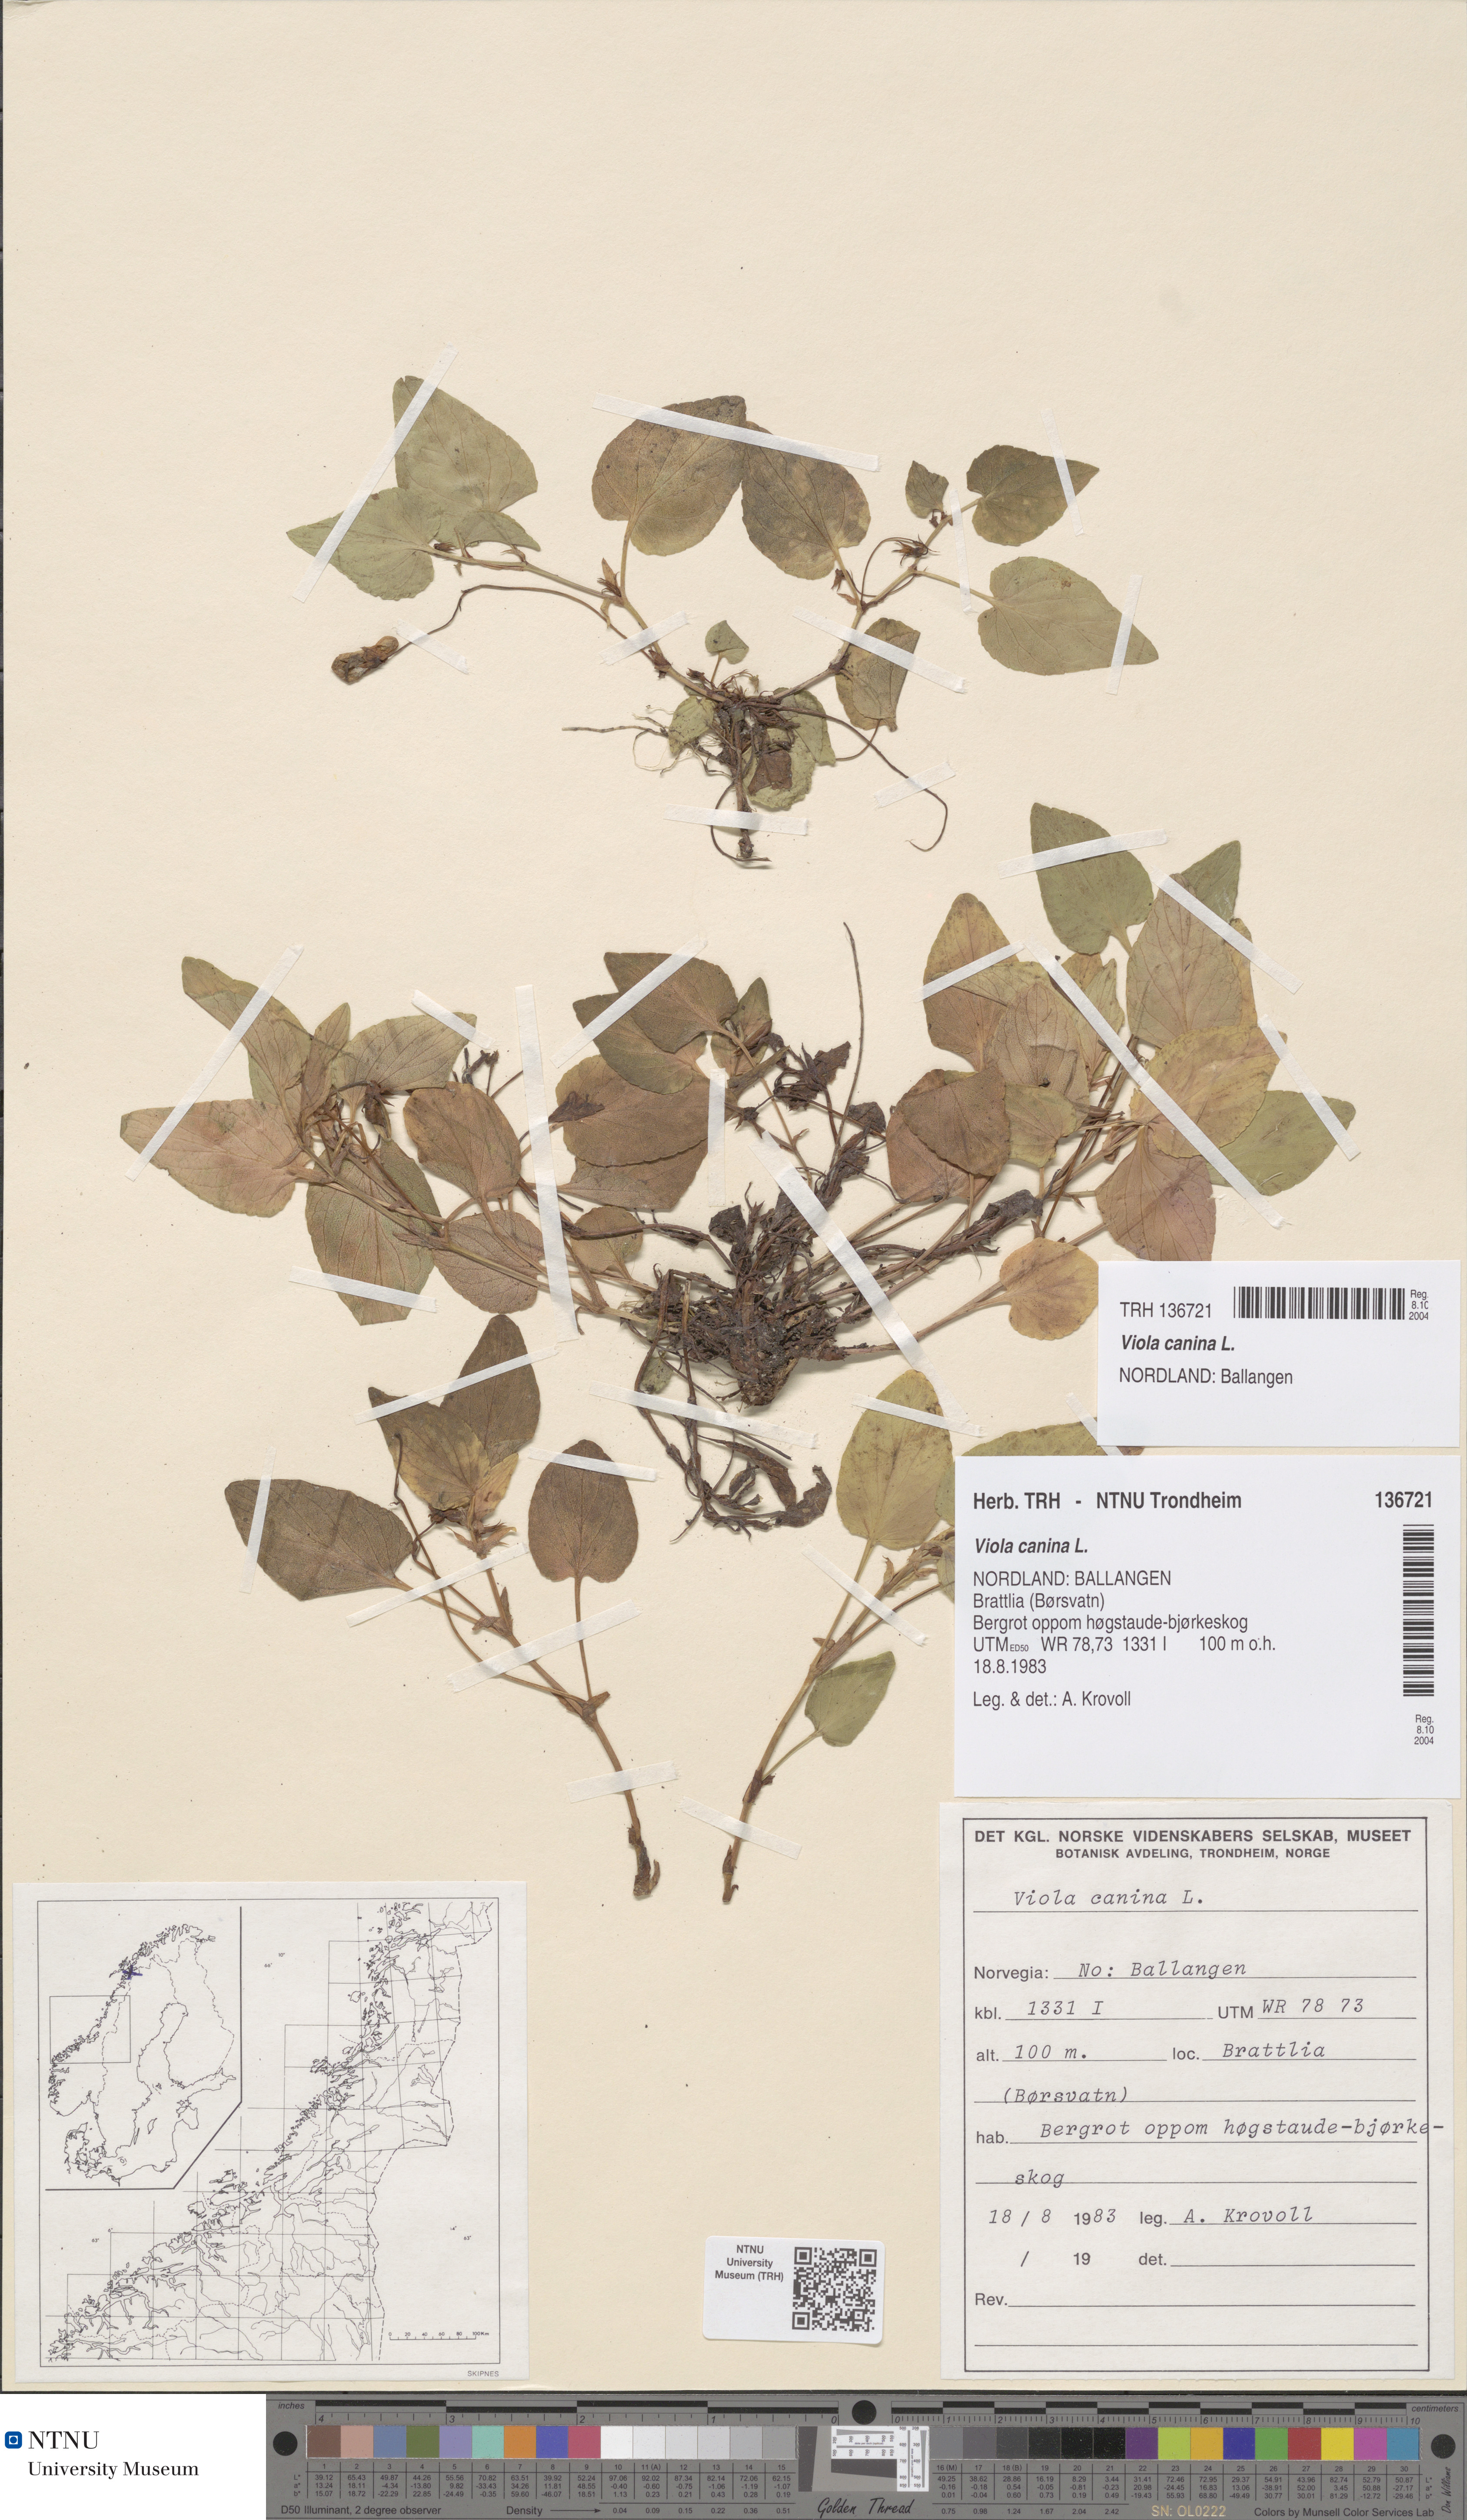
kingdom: Plantae
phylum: Tracheophyta
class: Magnoliopsida
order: Malpighiales
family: Violaceae
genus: Viola
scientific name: Viola canina
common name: Heath dog-violet
